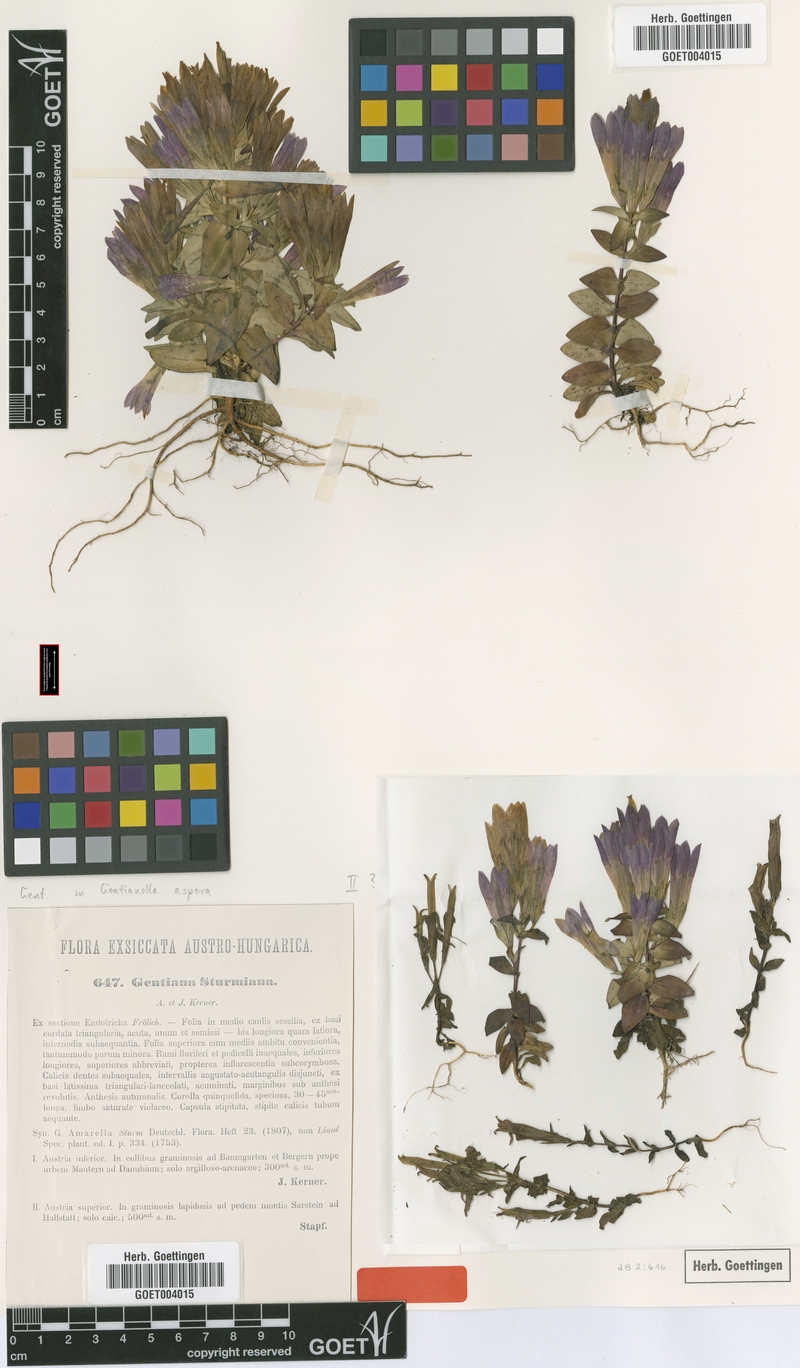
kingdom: Plantae
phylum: Tracheophyta
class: Magnoliopsida
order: Gentianales
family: Gentianaceae
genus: Gentianella
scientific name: Gentianella obtusifolia
